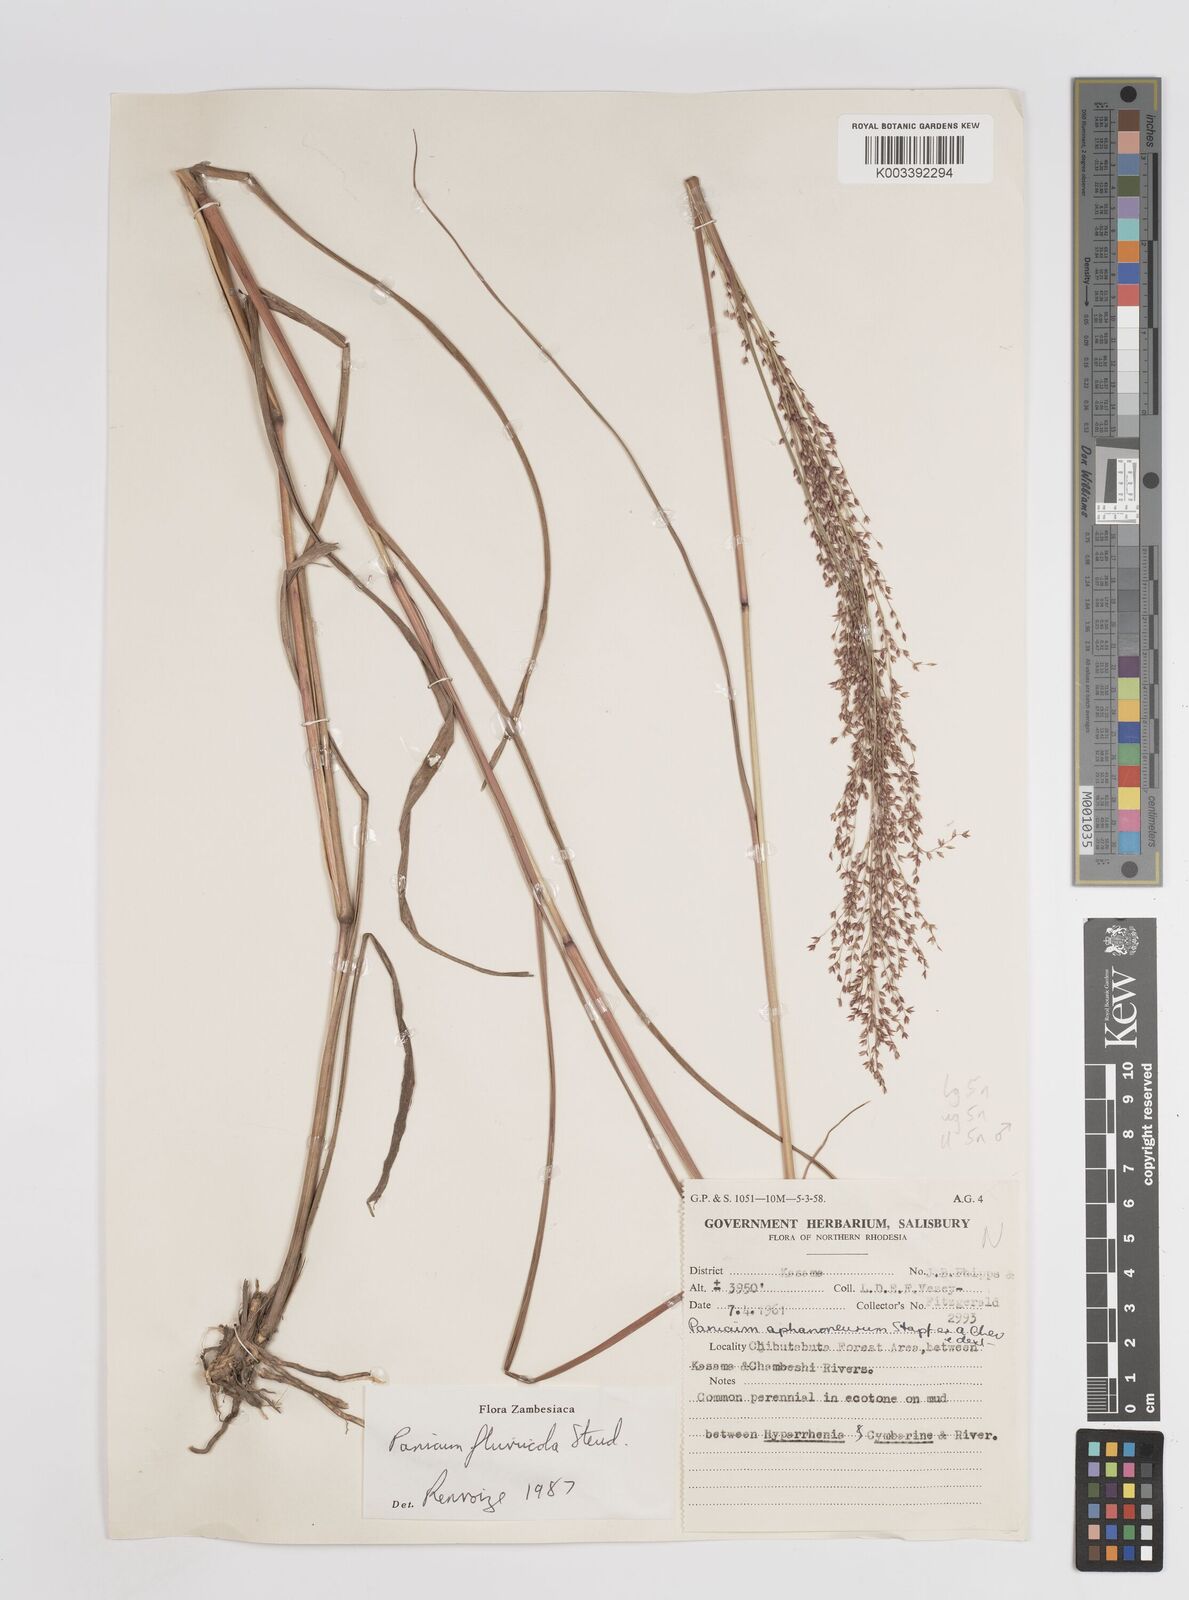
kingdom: Plantae
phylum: Tracheophyta
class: Liliopsida
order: Poales
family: Poaceae
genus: Panicum
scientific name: Panicum fluviicola
